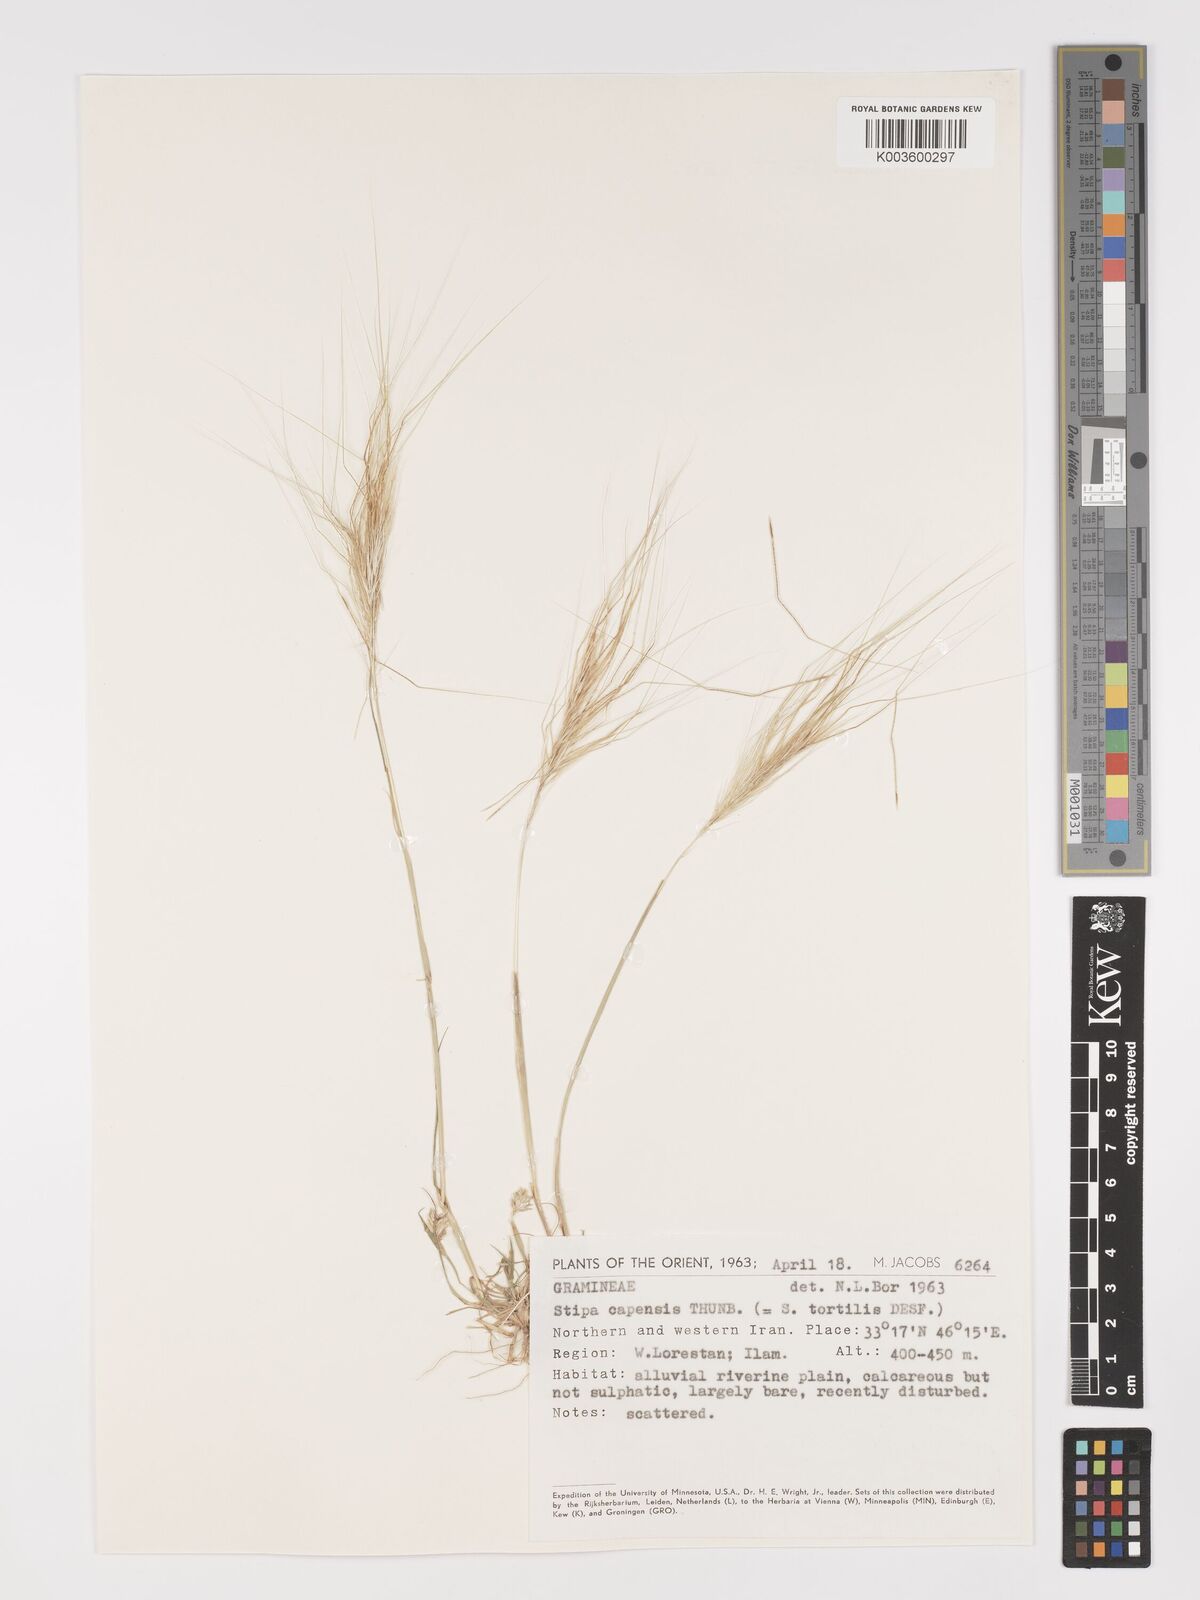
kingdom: Plantae
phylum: Tracheophyta
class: Liliopsida
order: Poales
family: Poaceae
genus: Stipellula
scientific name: Stipellula capensis
